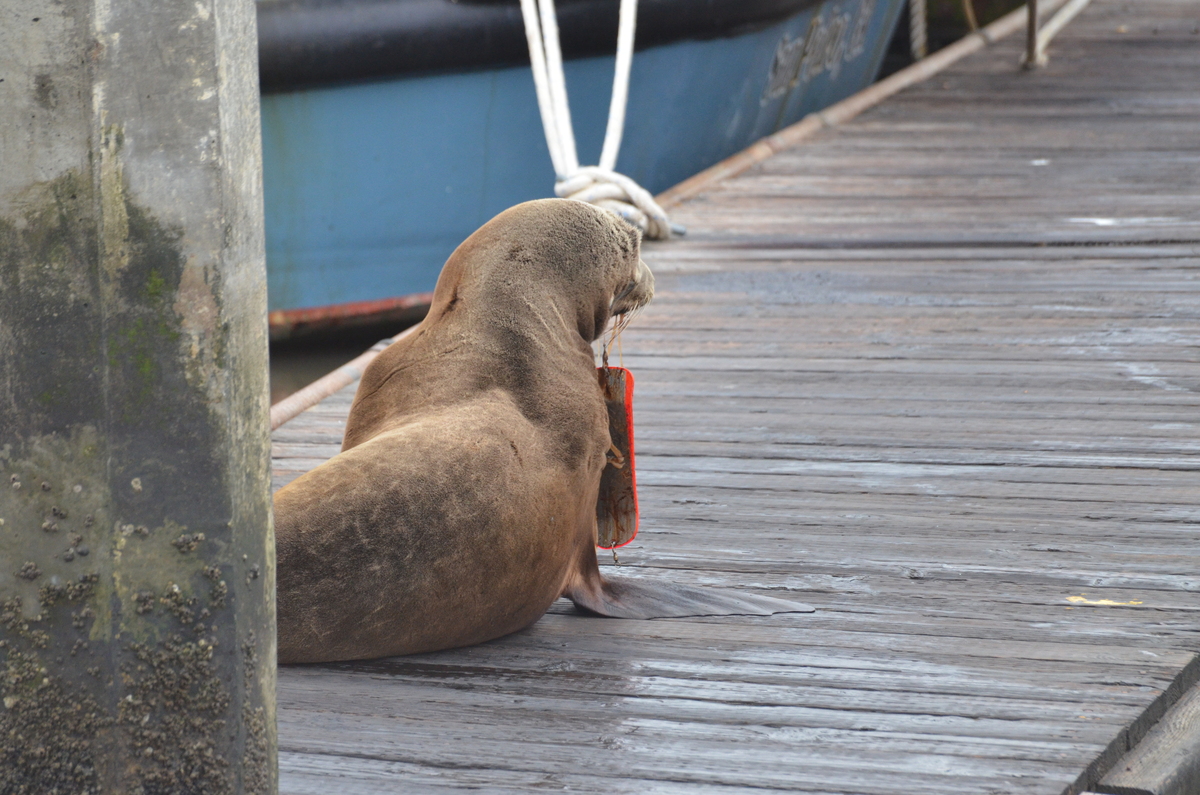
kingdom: Animalia
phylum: Chordata
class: Mammalia
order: Carnivora
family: Otariidae
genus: Zalophus
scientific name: Zalophus californianus
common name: California sea lion
